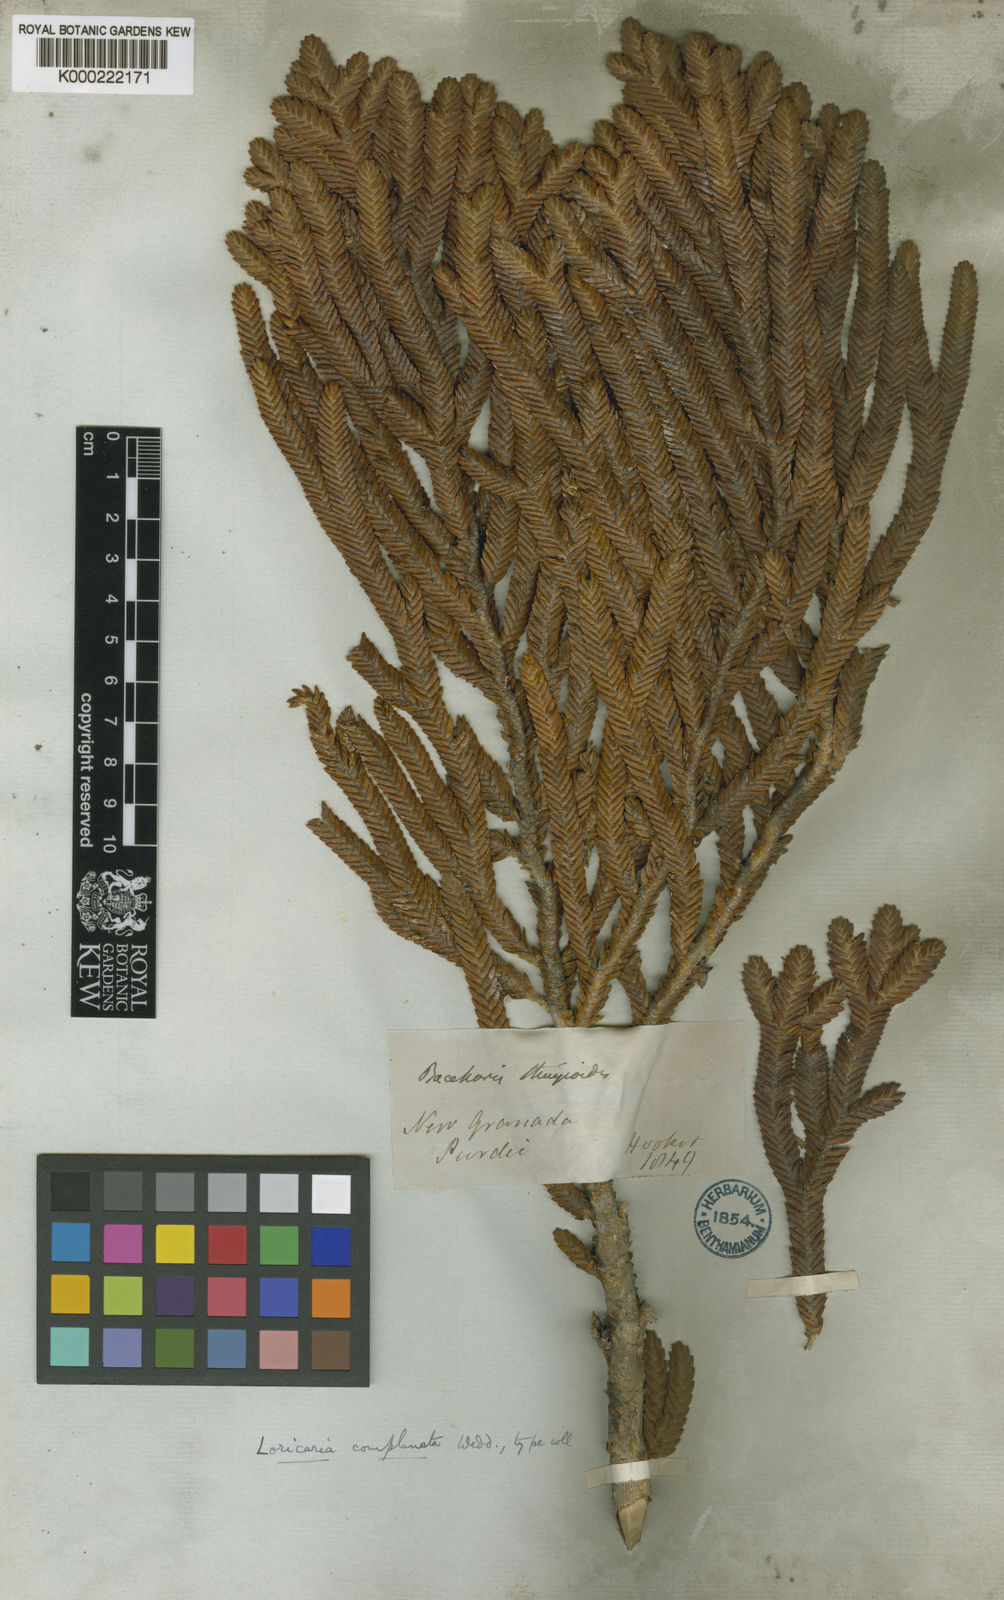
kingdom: Plantae
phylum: Tracheophyta
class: Magnoliopsida
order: Asterales
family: Asteraceae
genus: Andicolea
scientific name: Andicolea complanata
